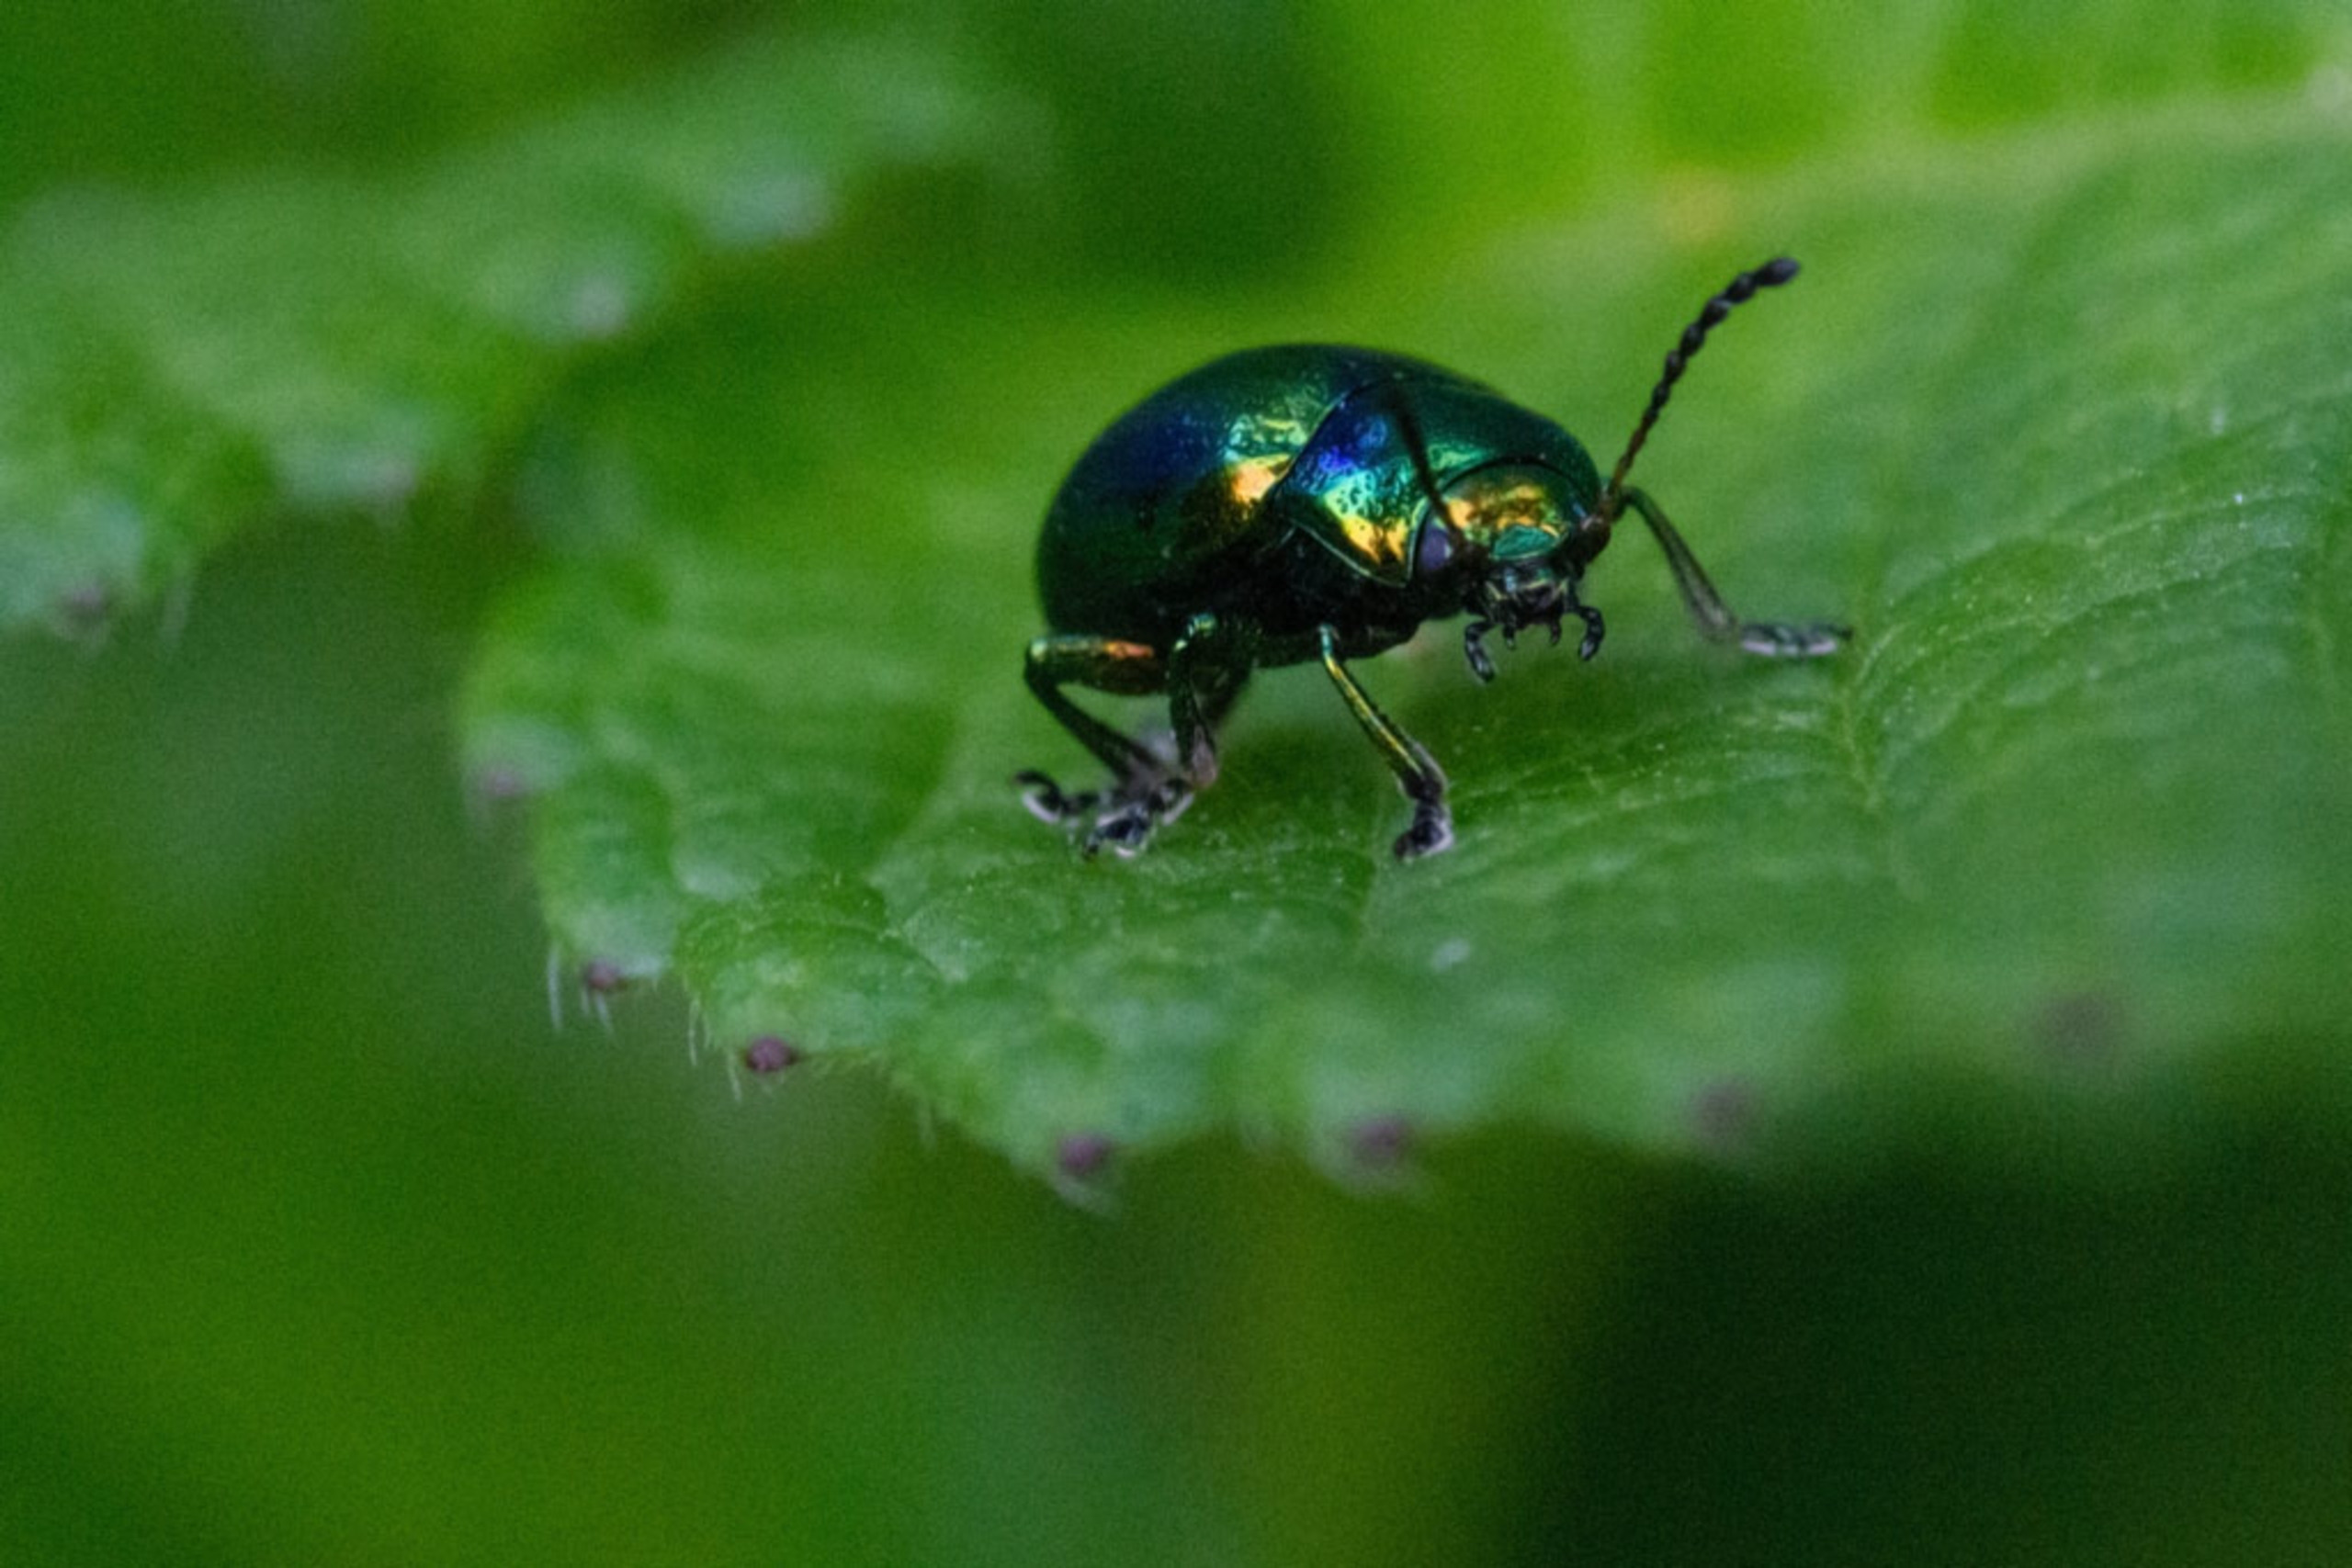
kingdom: Animalia
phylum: Arthropoda
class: Insecta
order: Coleoptera
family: Chrysomelidae
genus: Chrysolina
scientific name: Chrysolina fastuosa
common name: Tvetandbladbille
